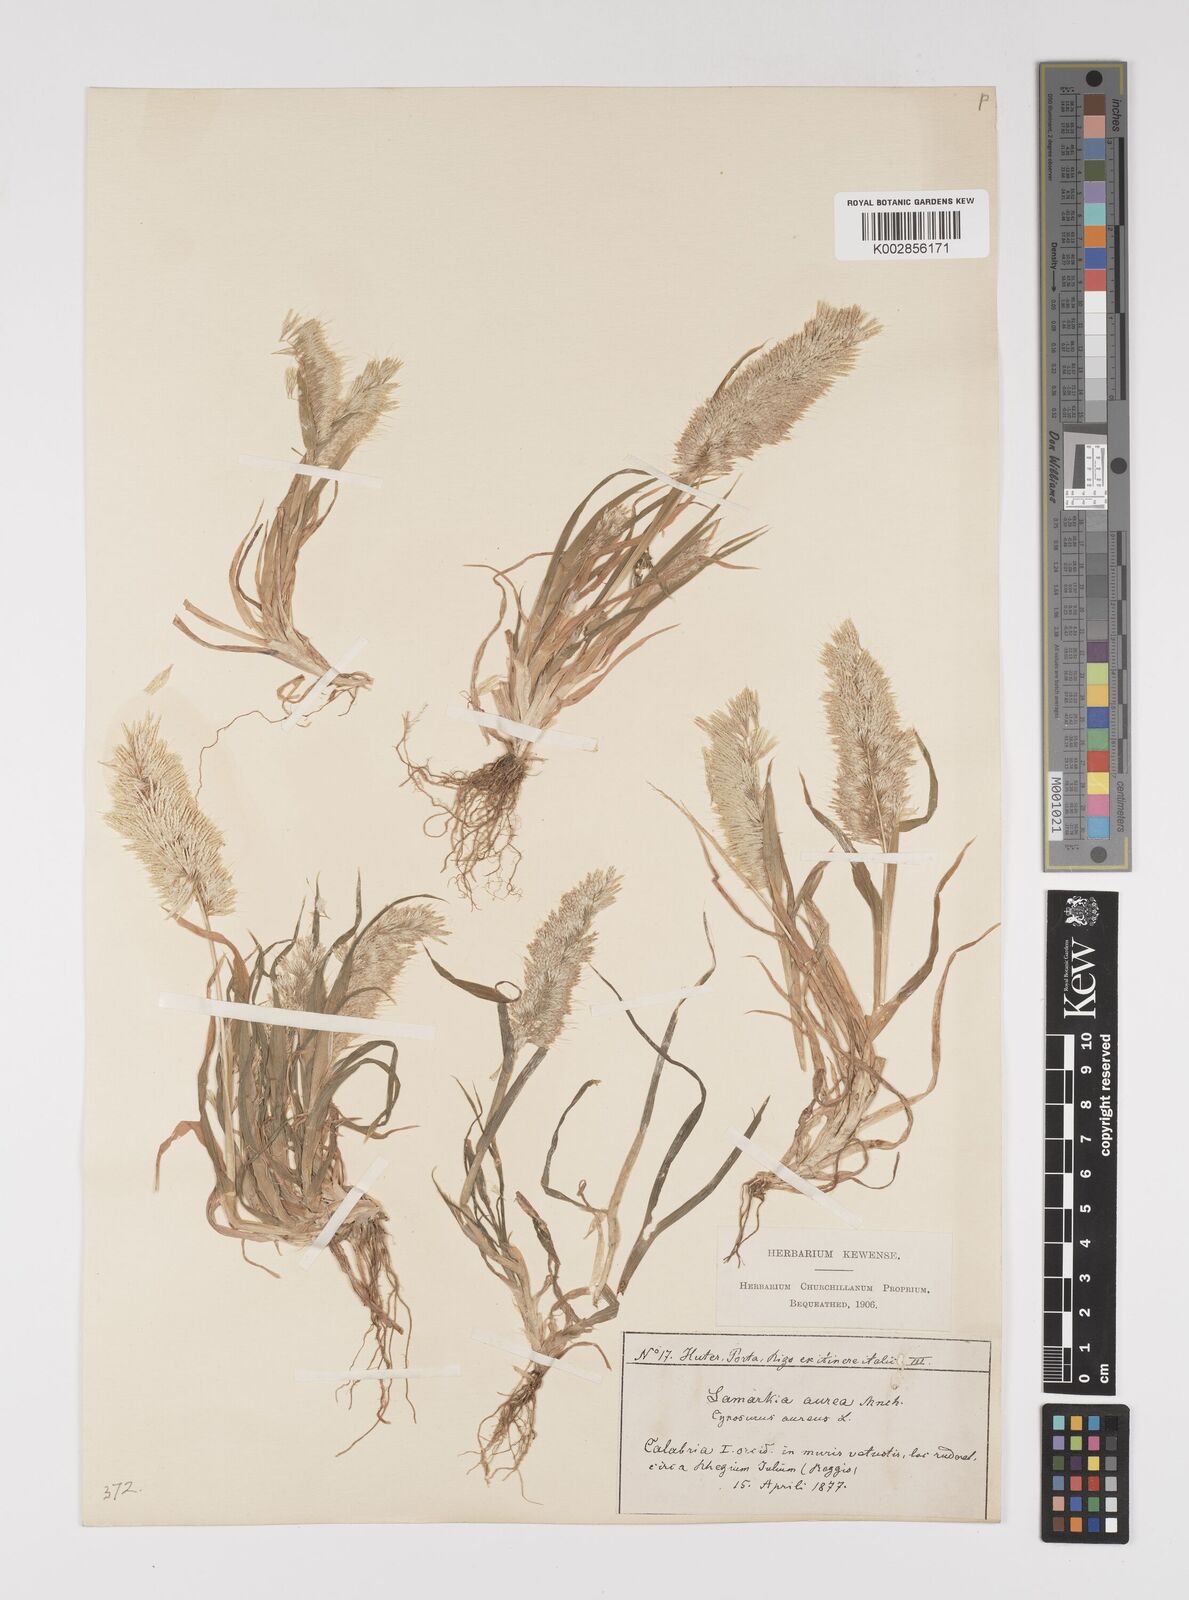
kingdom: Plantae
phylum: Tracheophyta
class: Liliopsida
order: Poales
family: Poaceae
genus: Lamarckia
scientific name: Lamarckia aurea
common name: Golden dog's-tail
